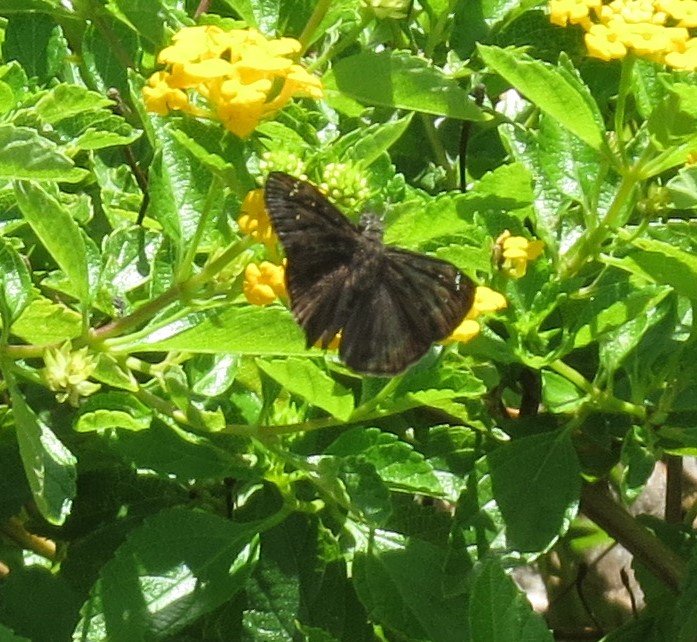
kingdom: Animalia
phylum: Arthropoda
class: Insecta
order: Lepidoptera
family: Hesperiidae
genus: Gesta
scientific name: Gesta
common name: Horace's Duskywing
